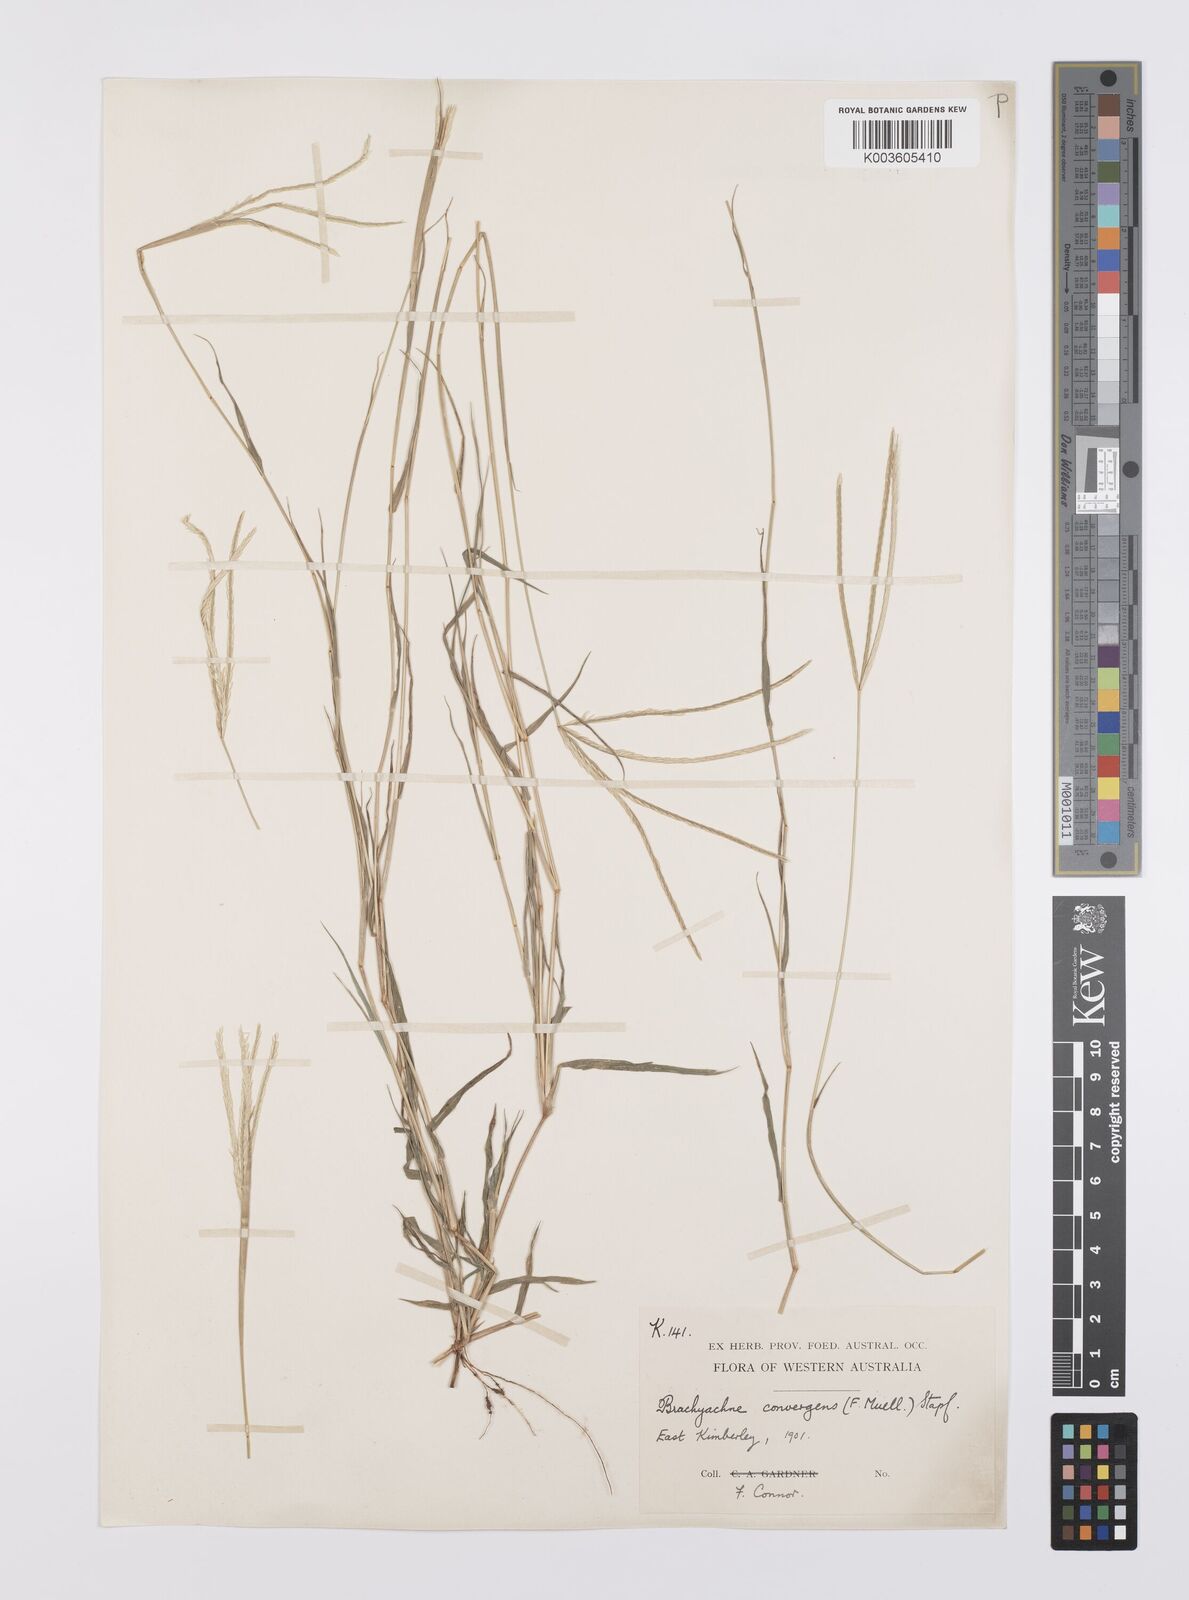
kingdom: Plantae
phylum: Tracheophyta
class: Liliopsida
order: Poales
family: Poaceae
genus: Cynodon
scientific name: Cynodon
